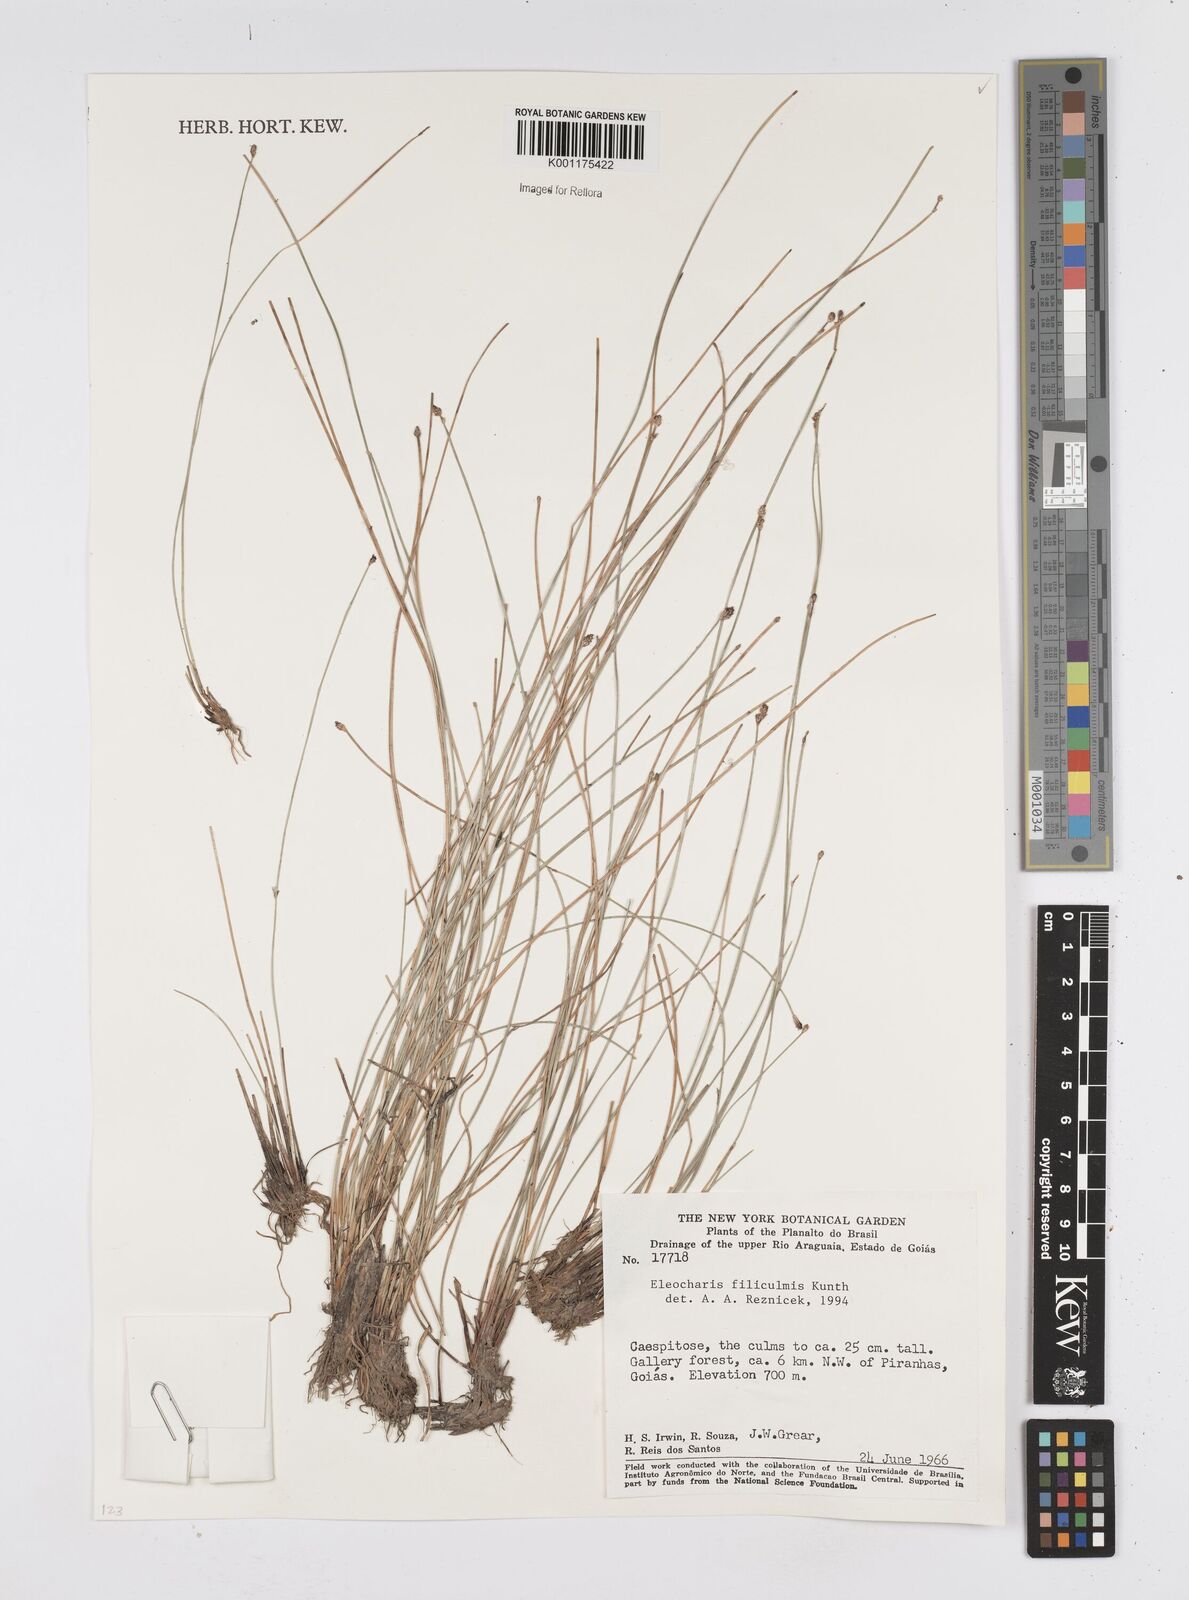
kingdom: Plantae
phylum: Tracheophyta
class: Liliopsida
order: Poales
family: Cyperaceae
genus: Eleocharis
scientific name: Eleocharis filiculmis
